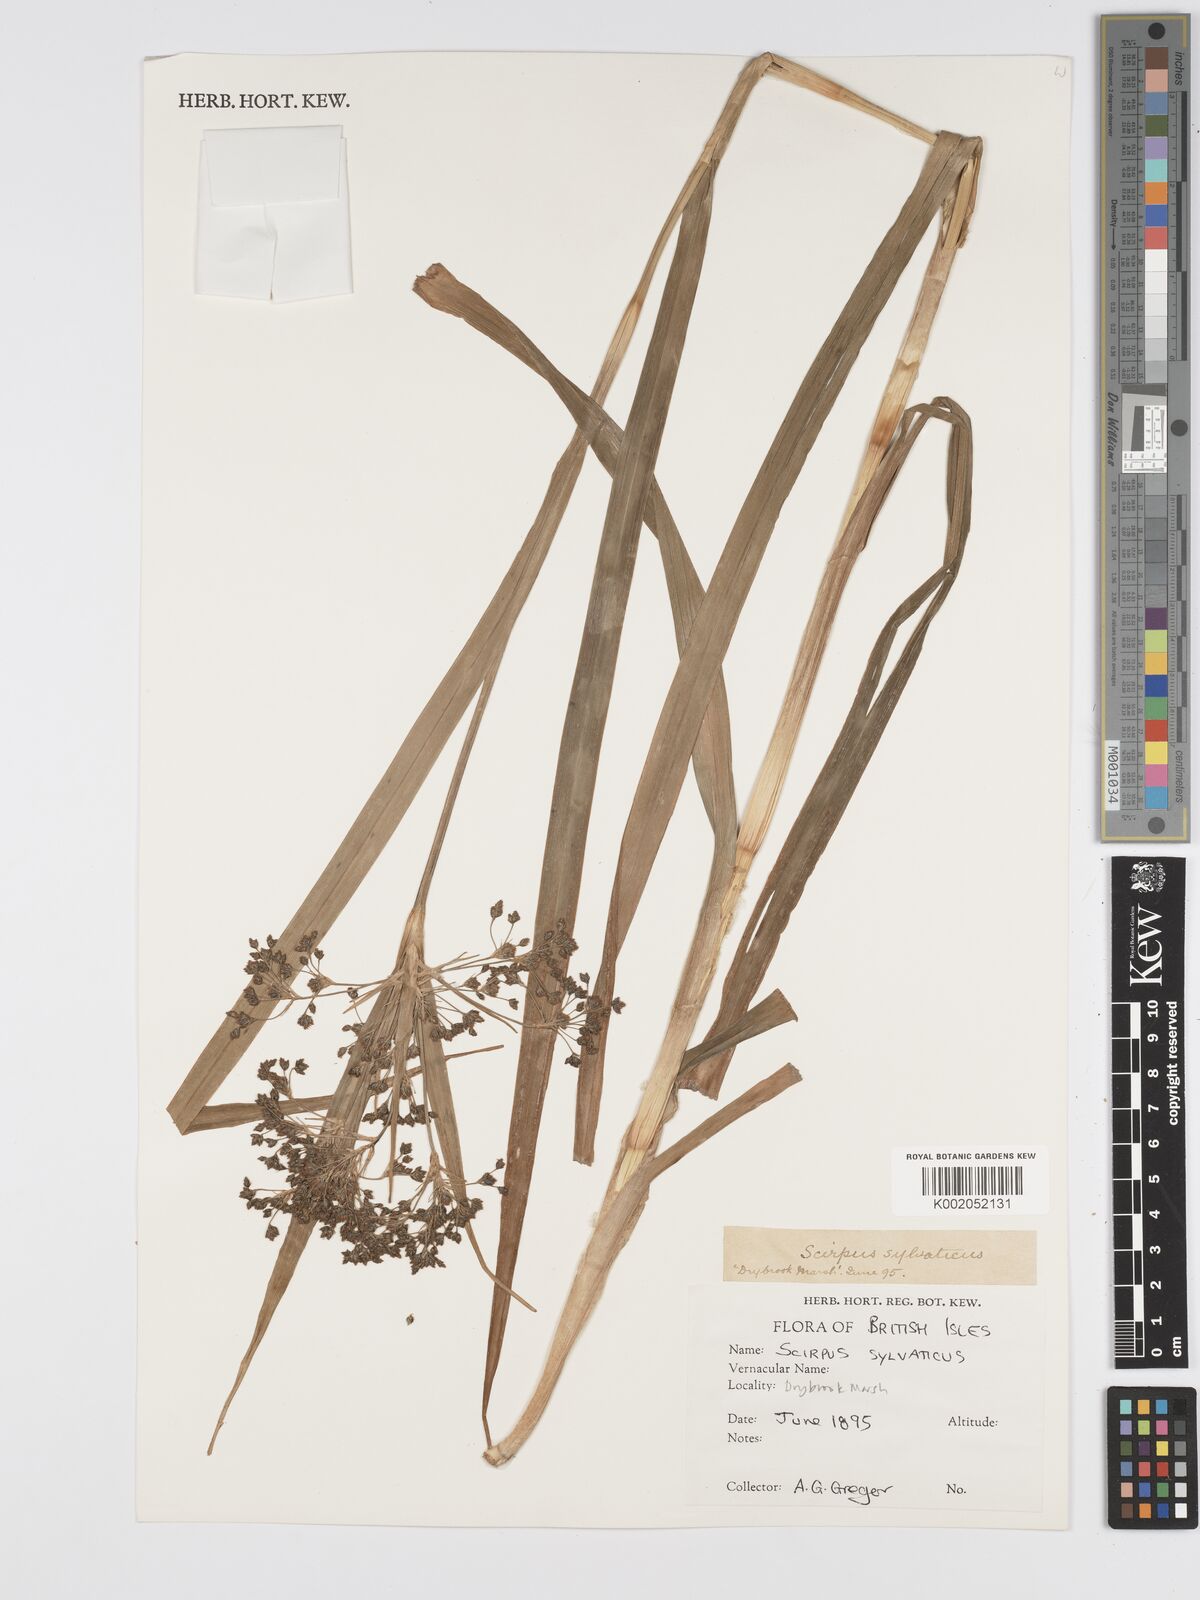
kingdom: Plantae
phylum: Tracheophyta
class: Liliopsida
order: Poales
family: Cyperaceae
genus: Scirpus
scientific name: Scirpus sylvaticus
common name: Wood club-rush
